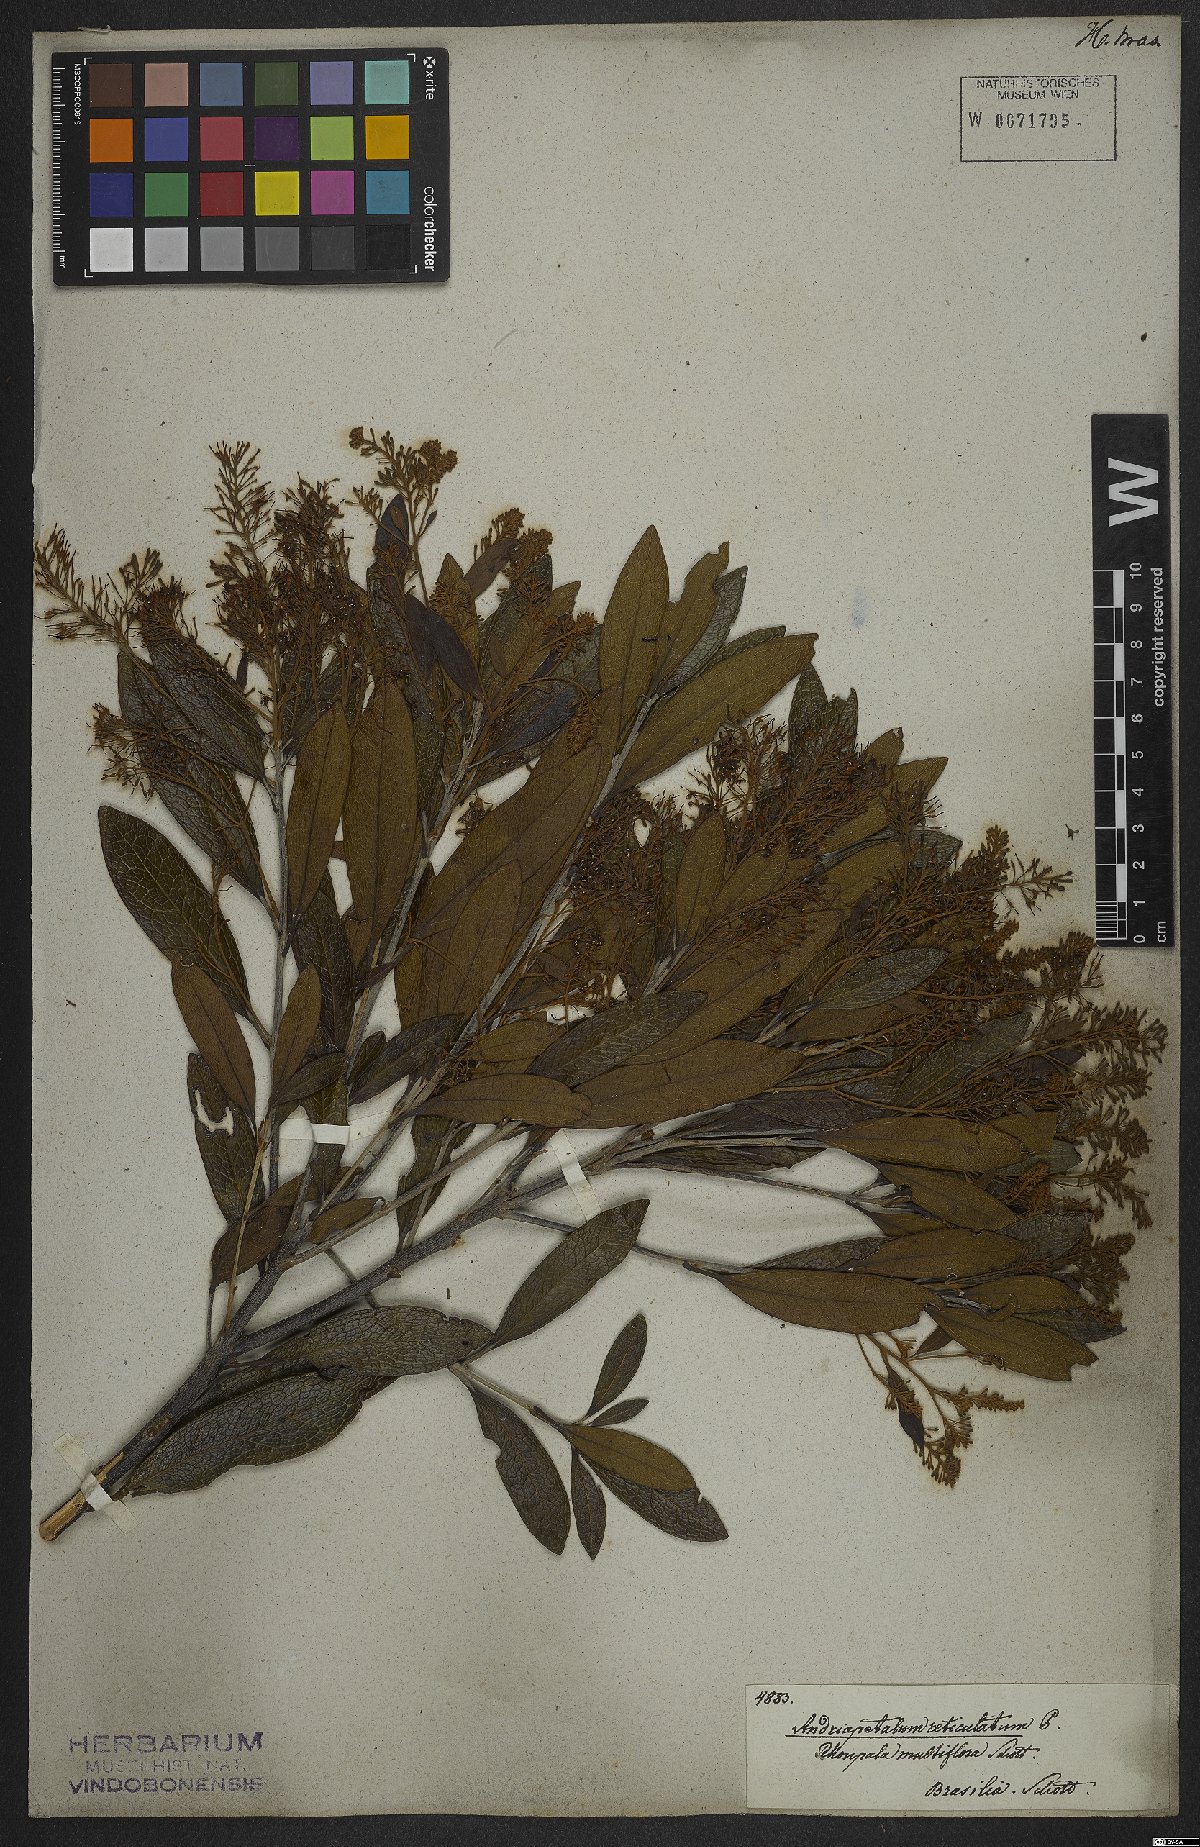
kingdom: Plantae
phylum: Tracheophyta
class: Magnoliopsida
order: Proteales
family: Proteaceae
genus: Panopsis
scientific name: Panopsis multiflora
